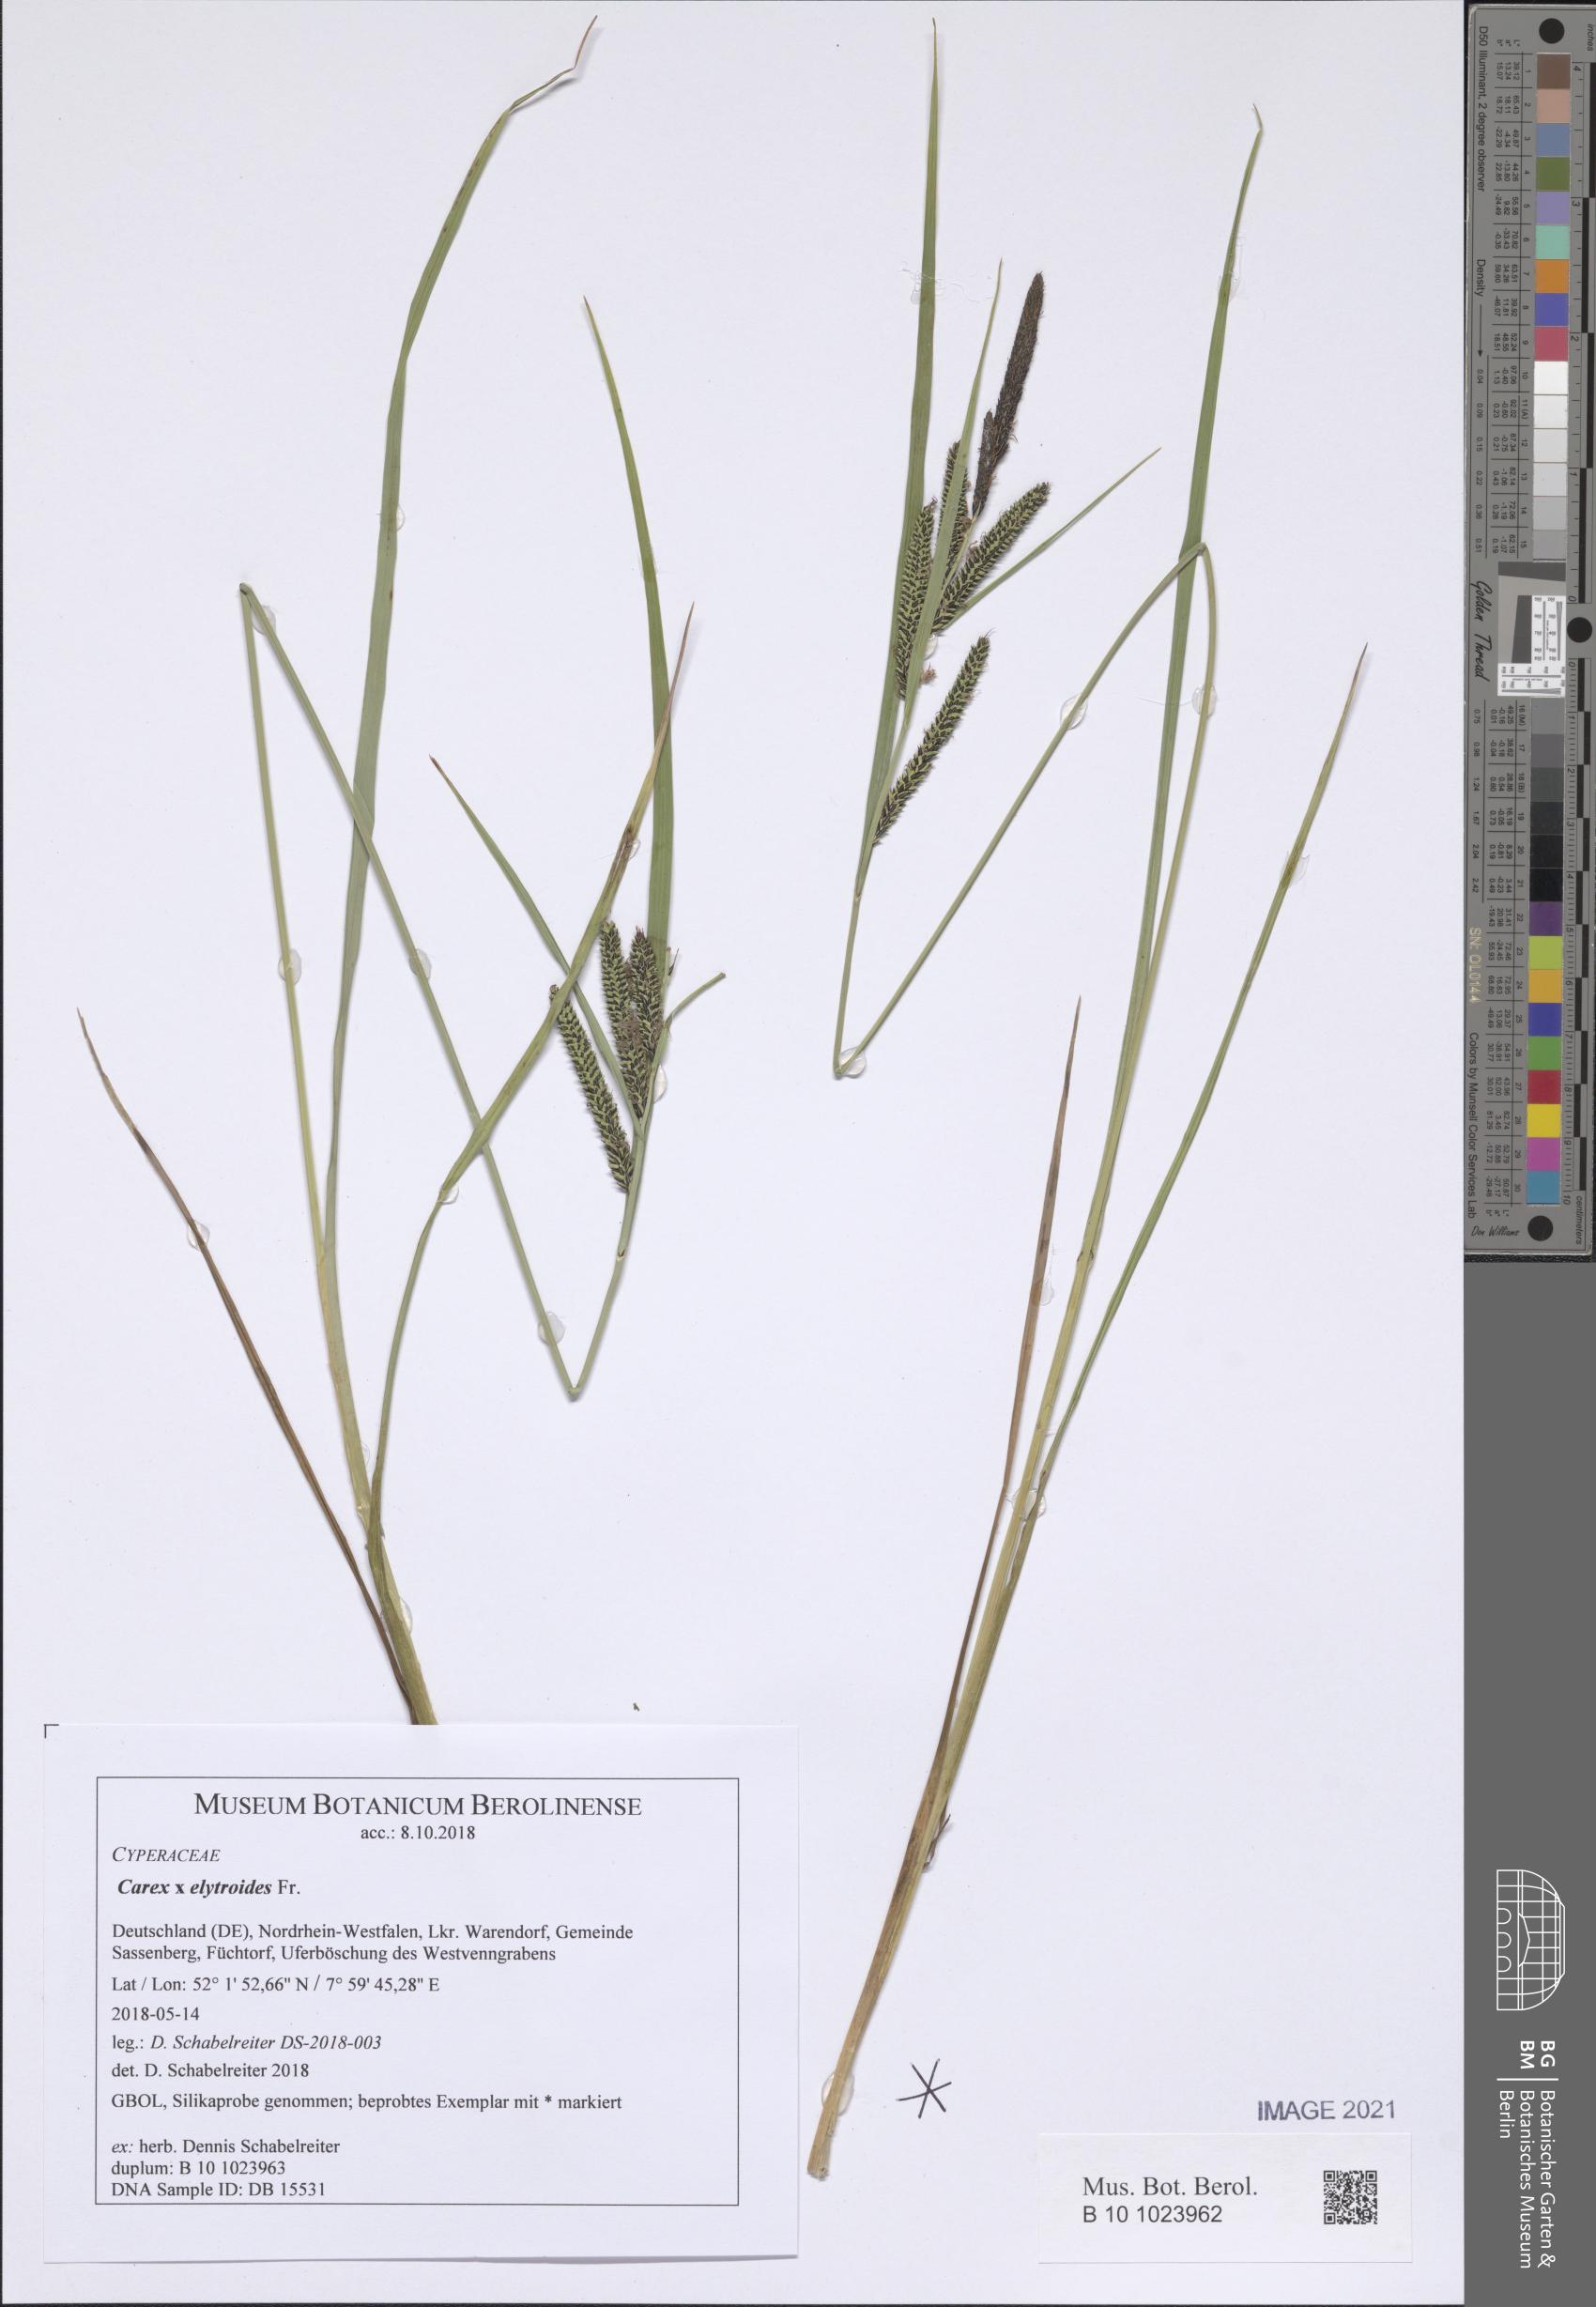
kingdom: Plantae
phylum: Tracheophyta
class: Liliopsida
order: Poales
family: Cyperaceae
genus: Carex
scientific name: Carex elytroides
